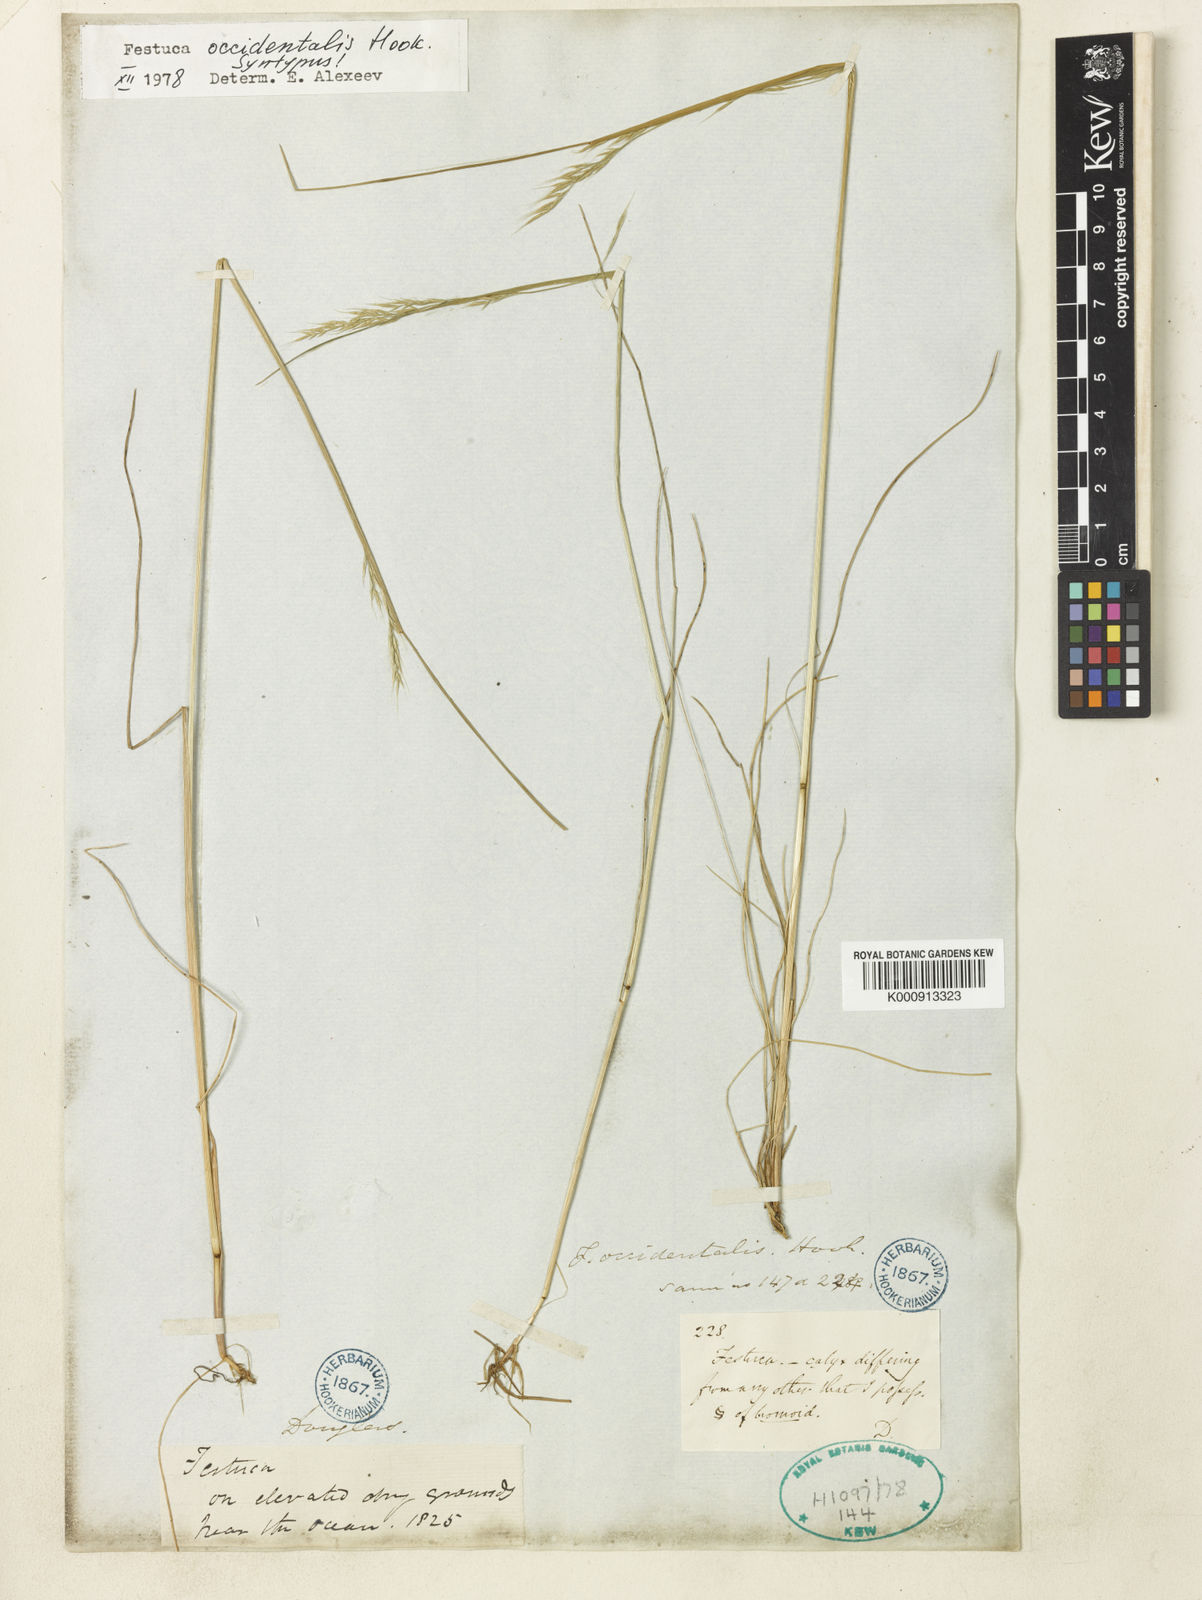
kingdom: Plantae
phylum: Tracheophyta
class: Liliopsida
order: Poales
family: Poaceae
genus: Festuca
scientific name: Festuca occidentalis
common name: Western fescue
